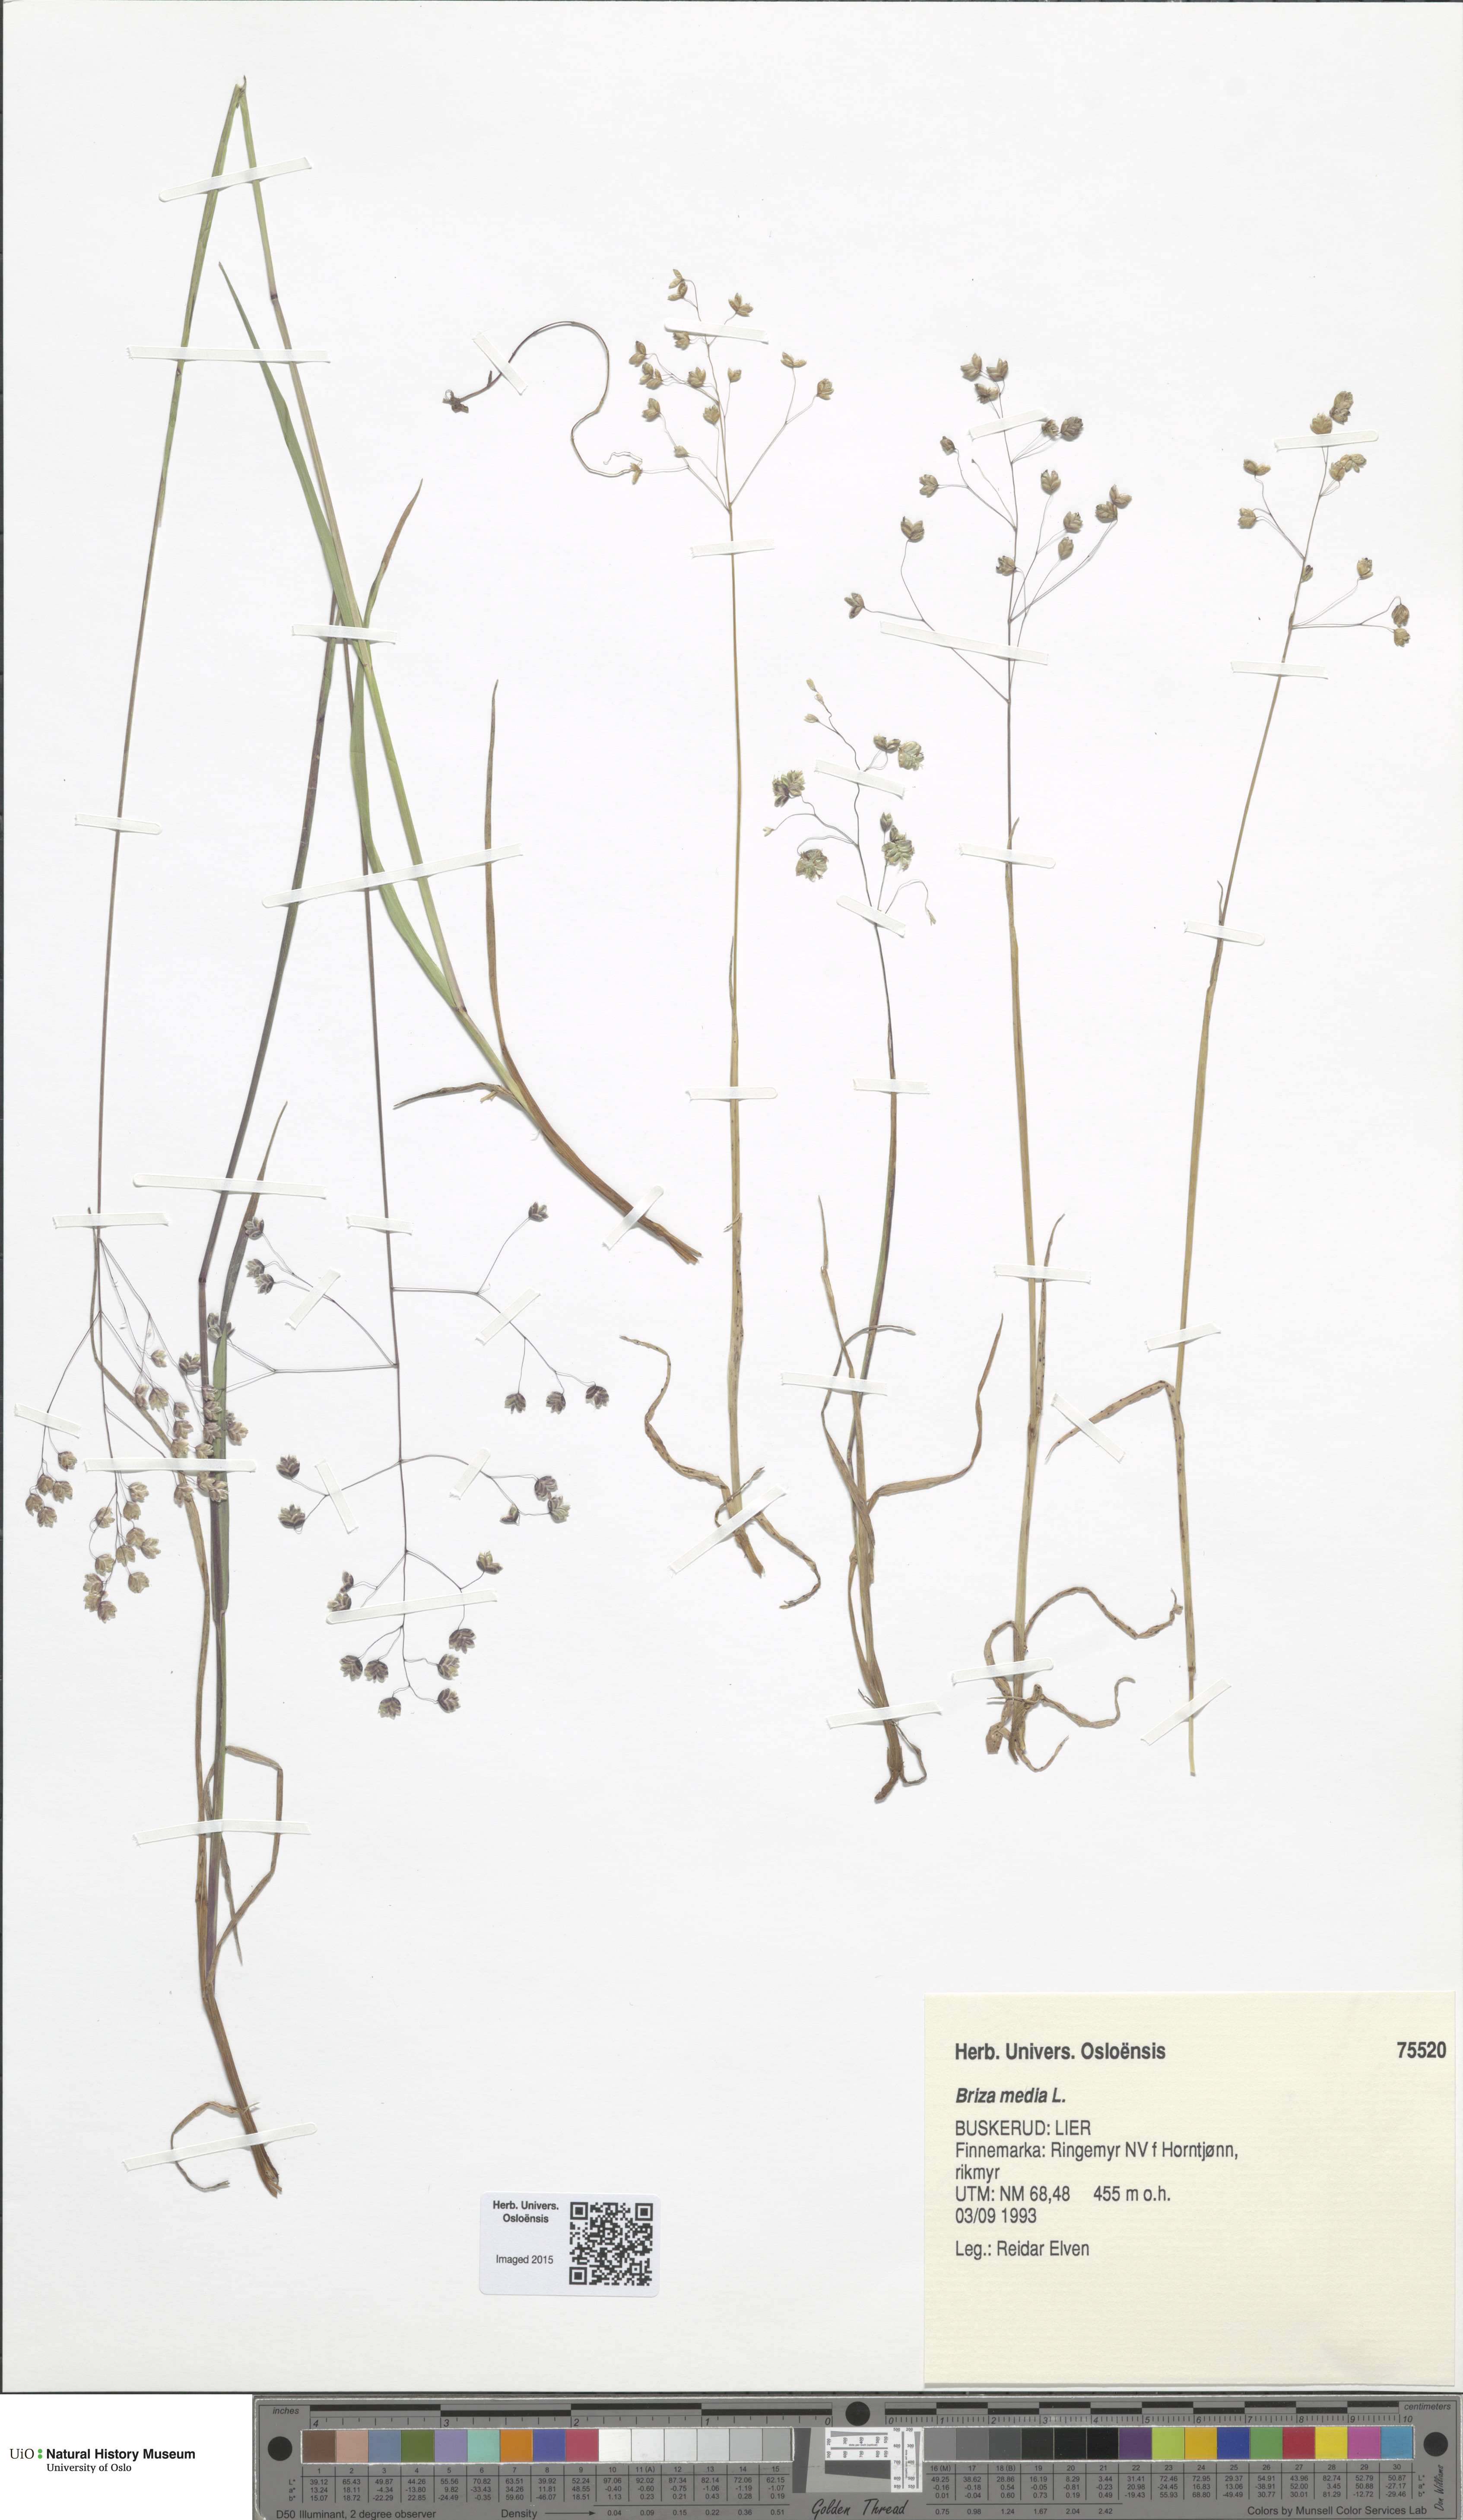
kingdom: Plantae
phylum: Tracheophyta
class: Liliopsida
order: Poales
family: Poaceae
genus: Briza
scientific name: Briza media
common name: Quaking grass
